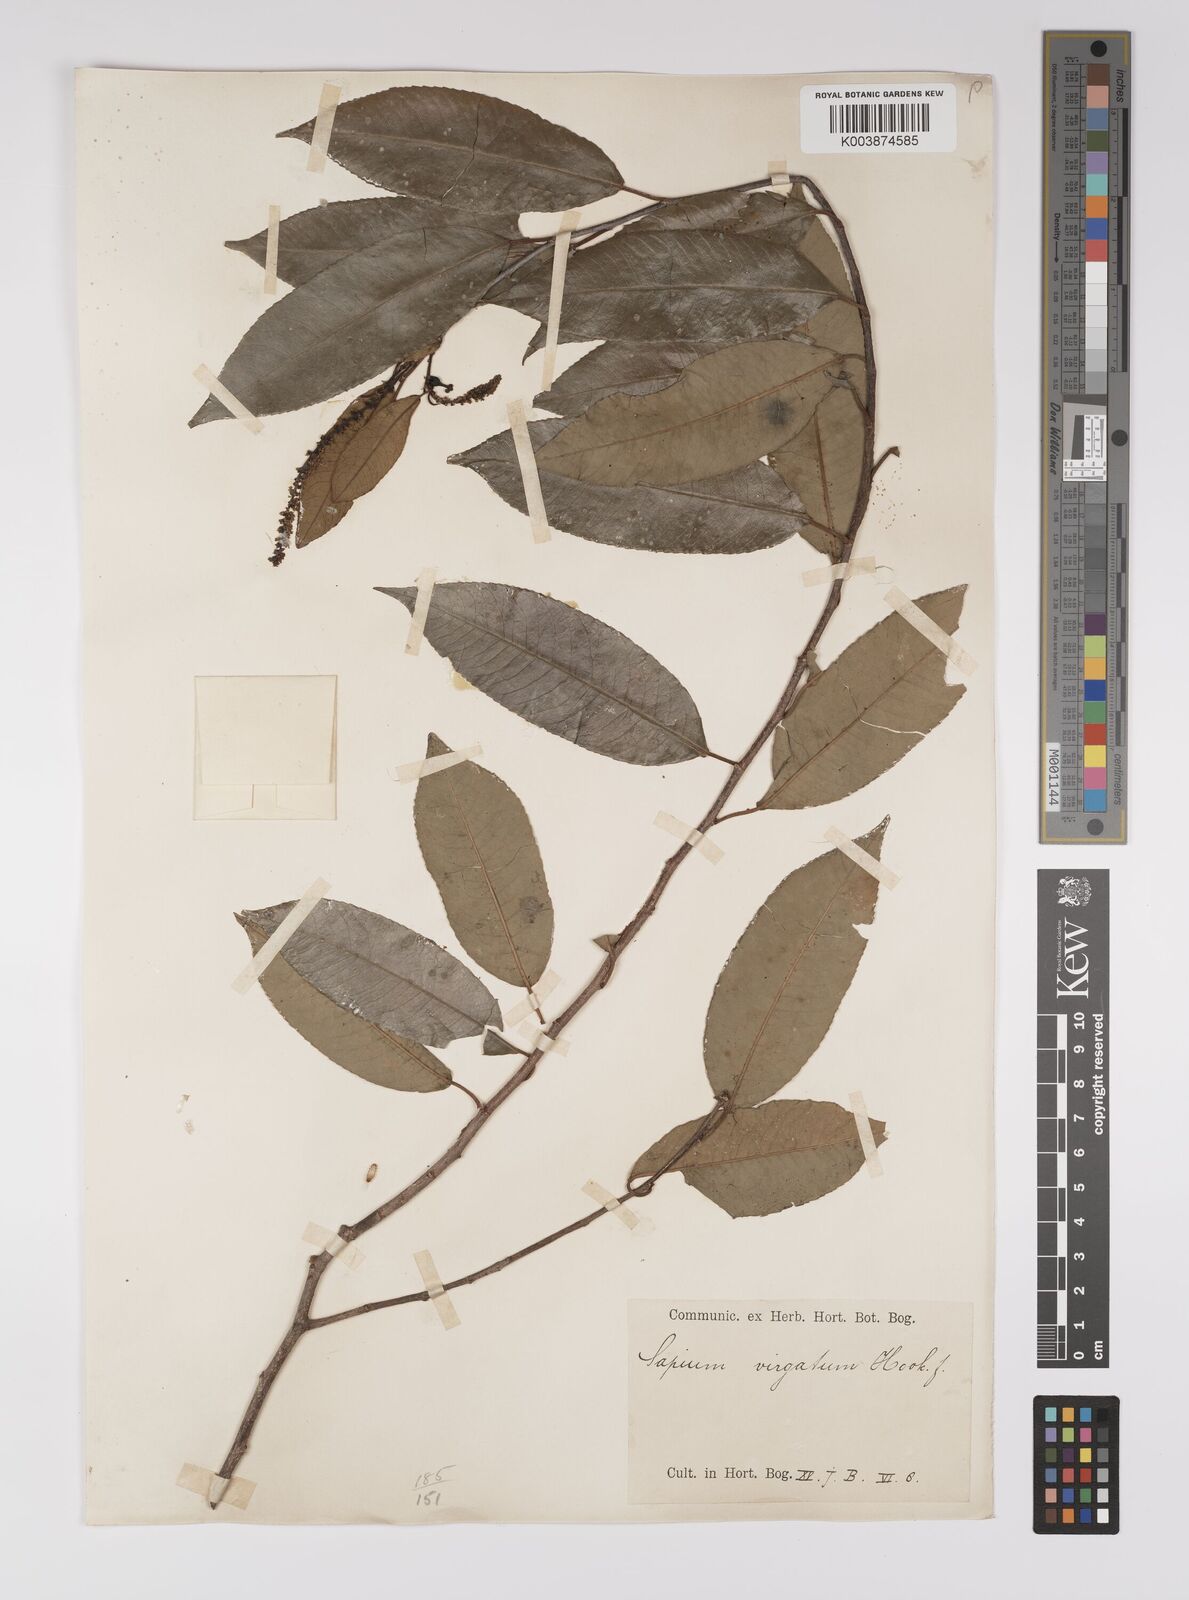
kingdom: Plantae
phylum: Tracheophyta
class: Magnoliopsida
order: Malpighiales
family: Euphorbiaceae
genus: Shirakiopsis
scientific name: Shirakiopsis virgata
